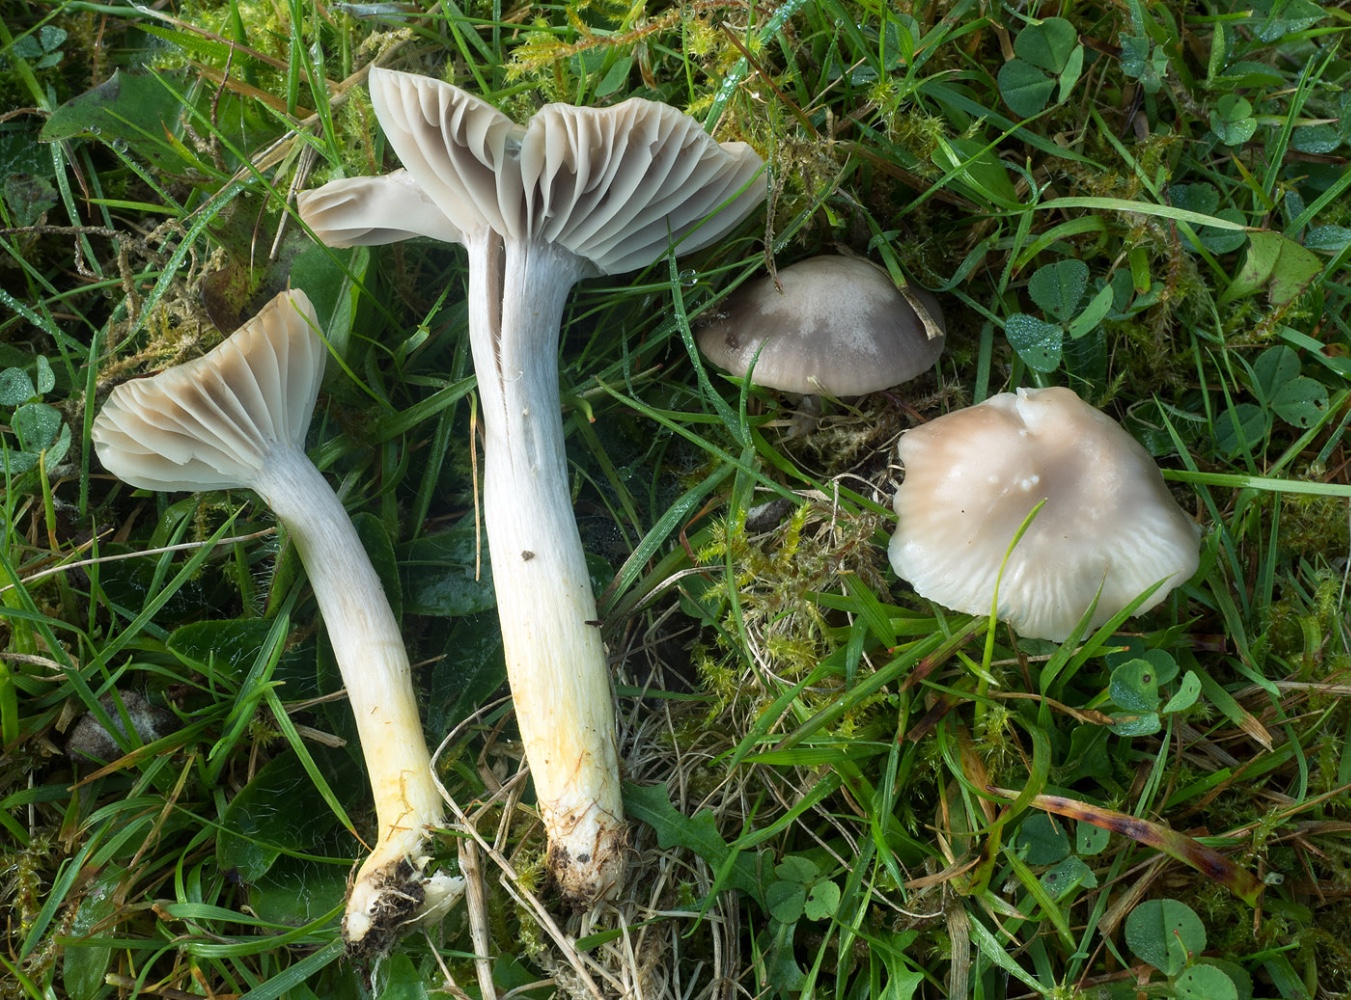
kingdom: Fungi
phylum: Basidiomycota
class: Agaricomycetes
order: Agaricales
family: Hygrophoraceae
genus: Cuphophyllus
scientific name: Cuphophyllus flavipes
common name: gulfodet vokshat
